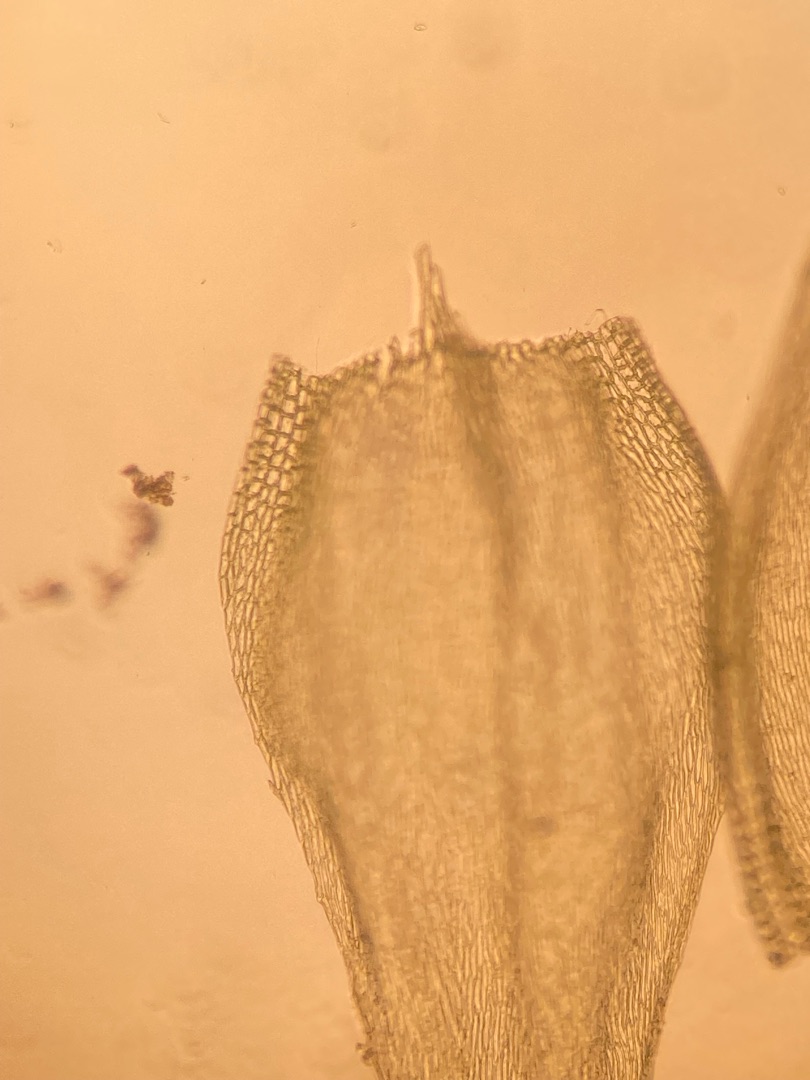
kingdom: Plantae
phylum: Bryophyta
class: Bryopsida
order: Hypnales
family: Brachytheciaceae
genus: Brachythecium
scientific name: Brachythecium albicans
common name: Hvidlig kortkapsel
